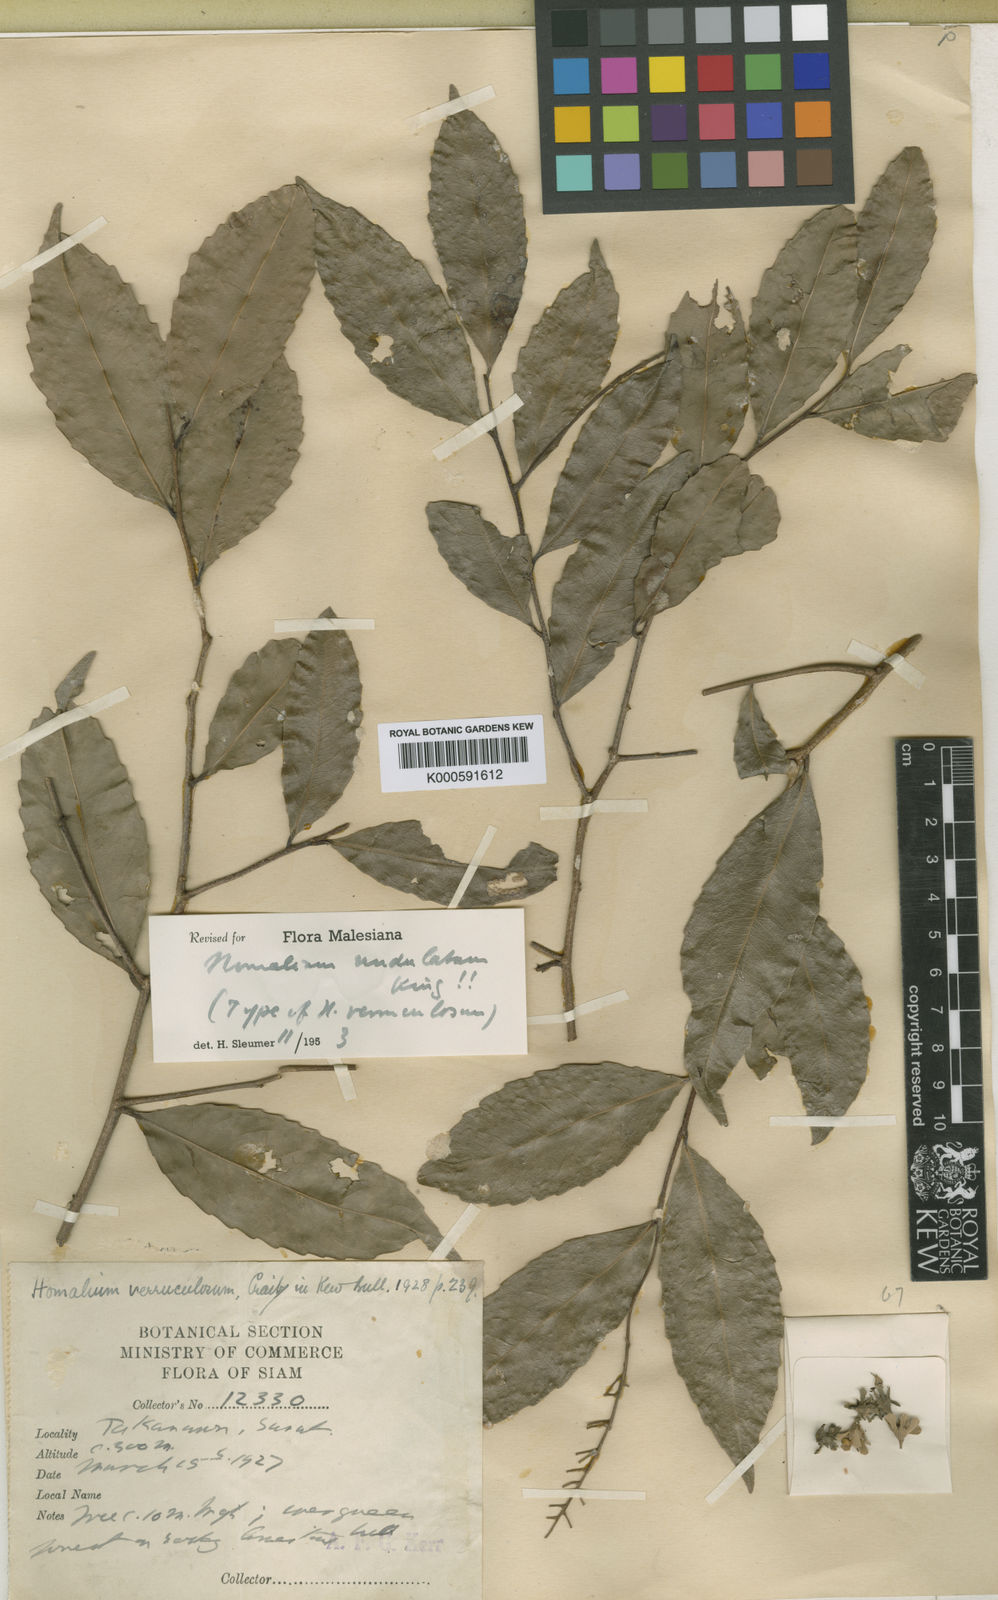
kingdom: Plantae
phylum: Tracheophyta
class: Magnoliopsida
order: Malpighiales
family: Salicaceae
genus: Homalium
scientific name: Homalium undulatum
